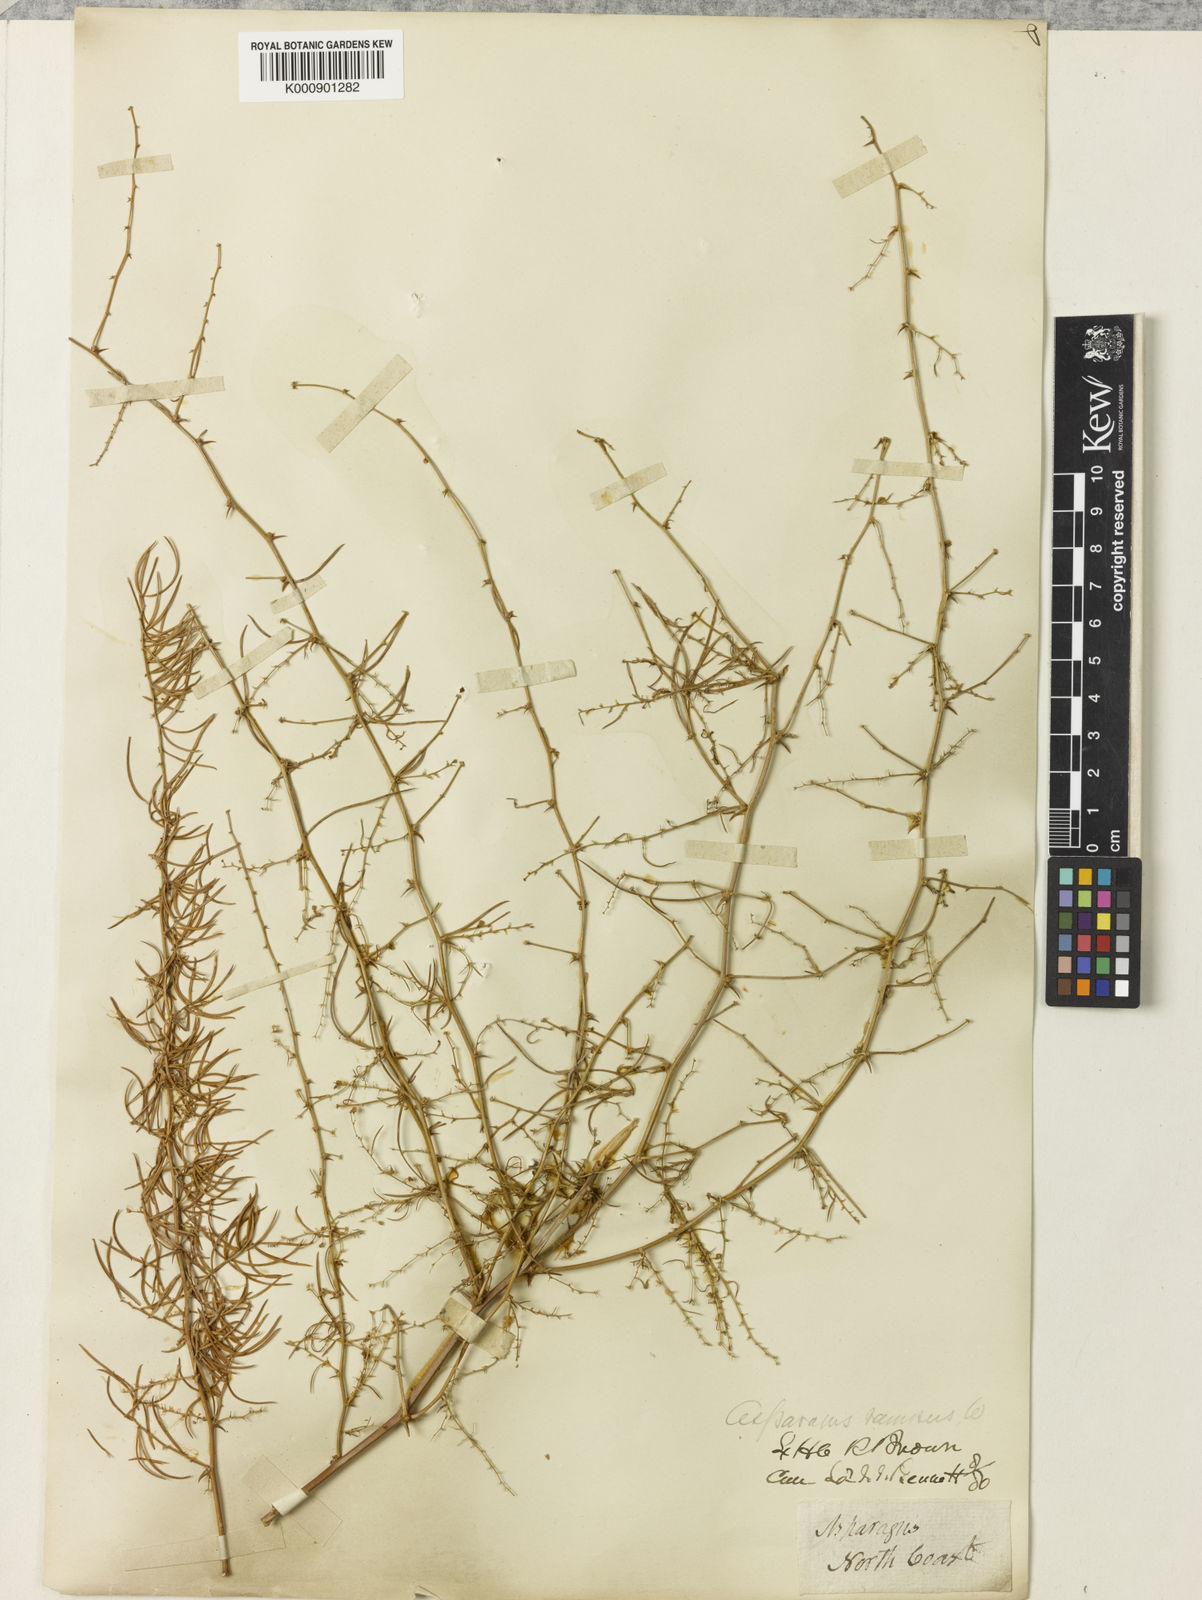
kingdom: Plantae
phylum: Tracheophyta
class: Liliopsida
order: Asparagales
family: Asparagaceae
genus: Asparagus
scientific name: Asparagus racemosus
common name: Asparagus-fern
